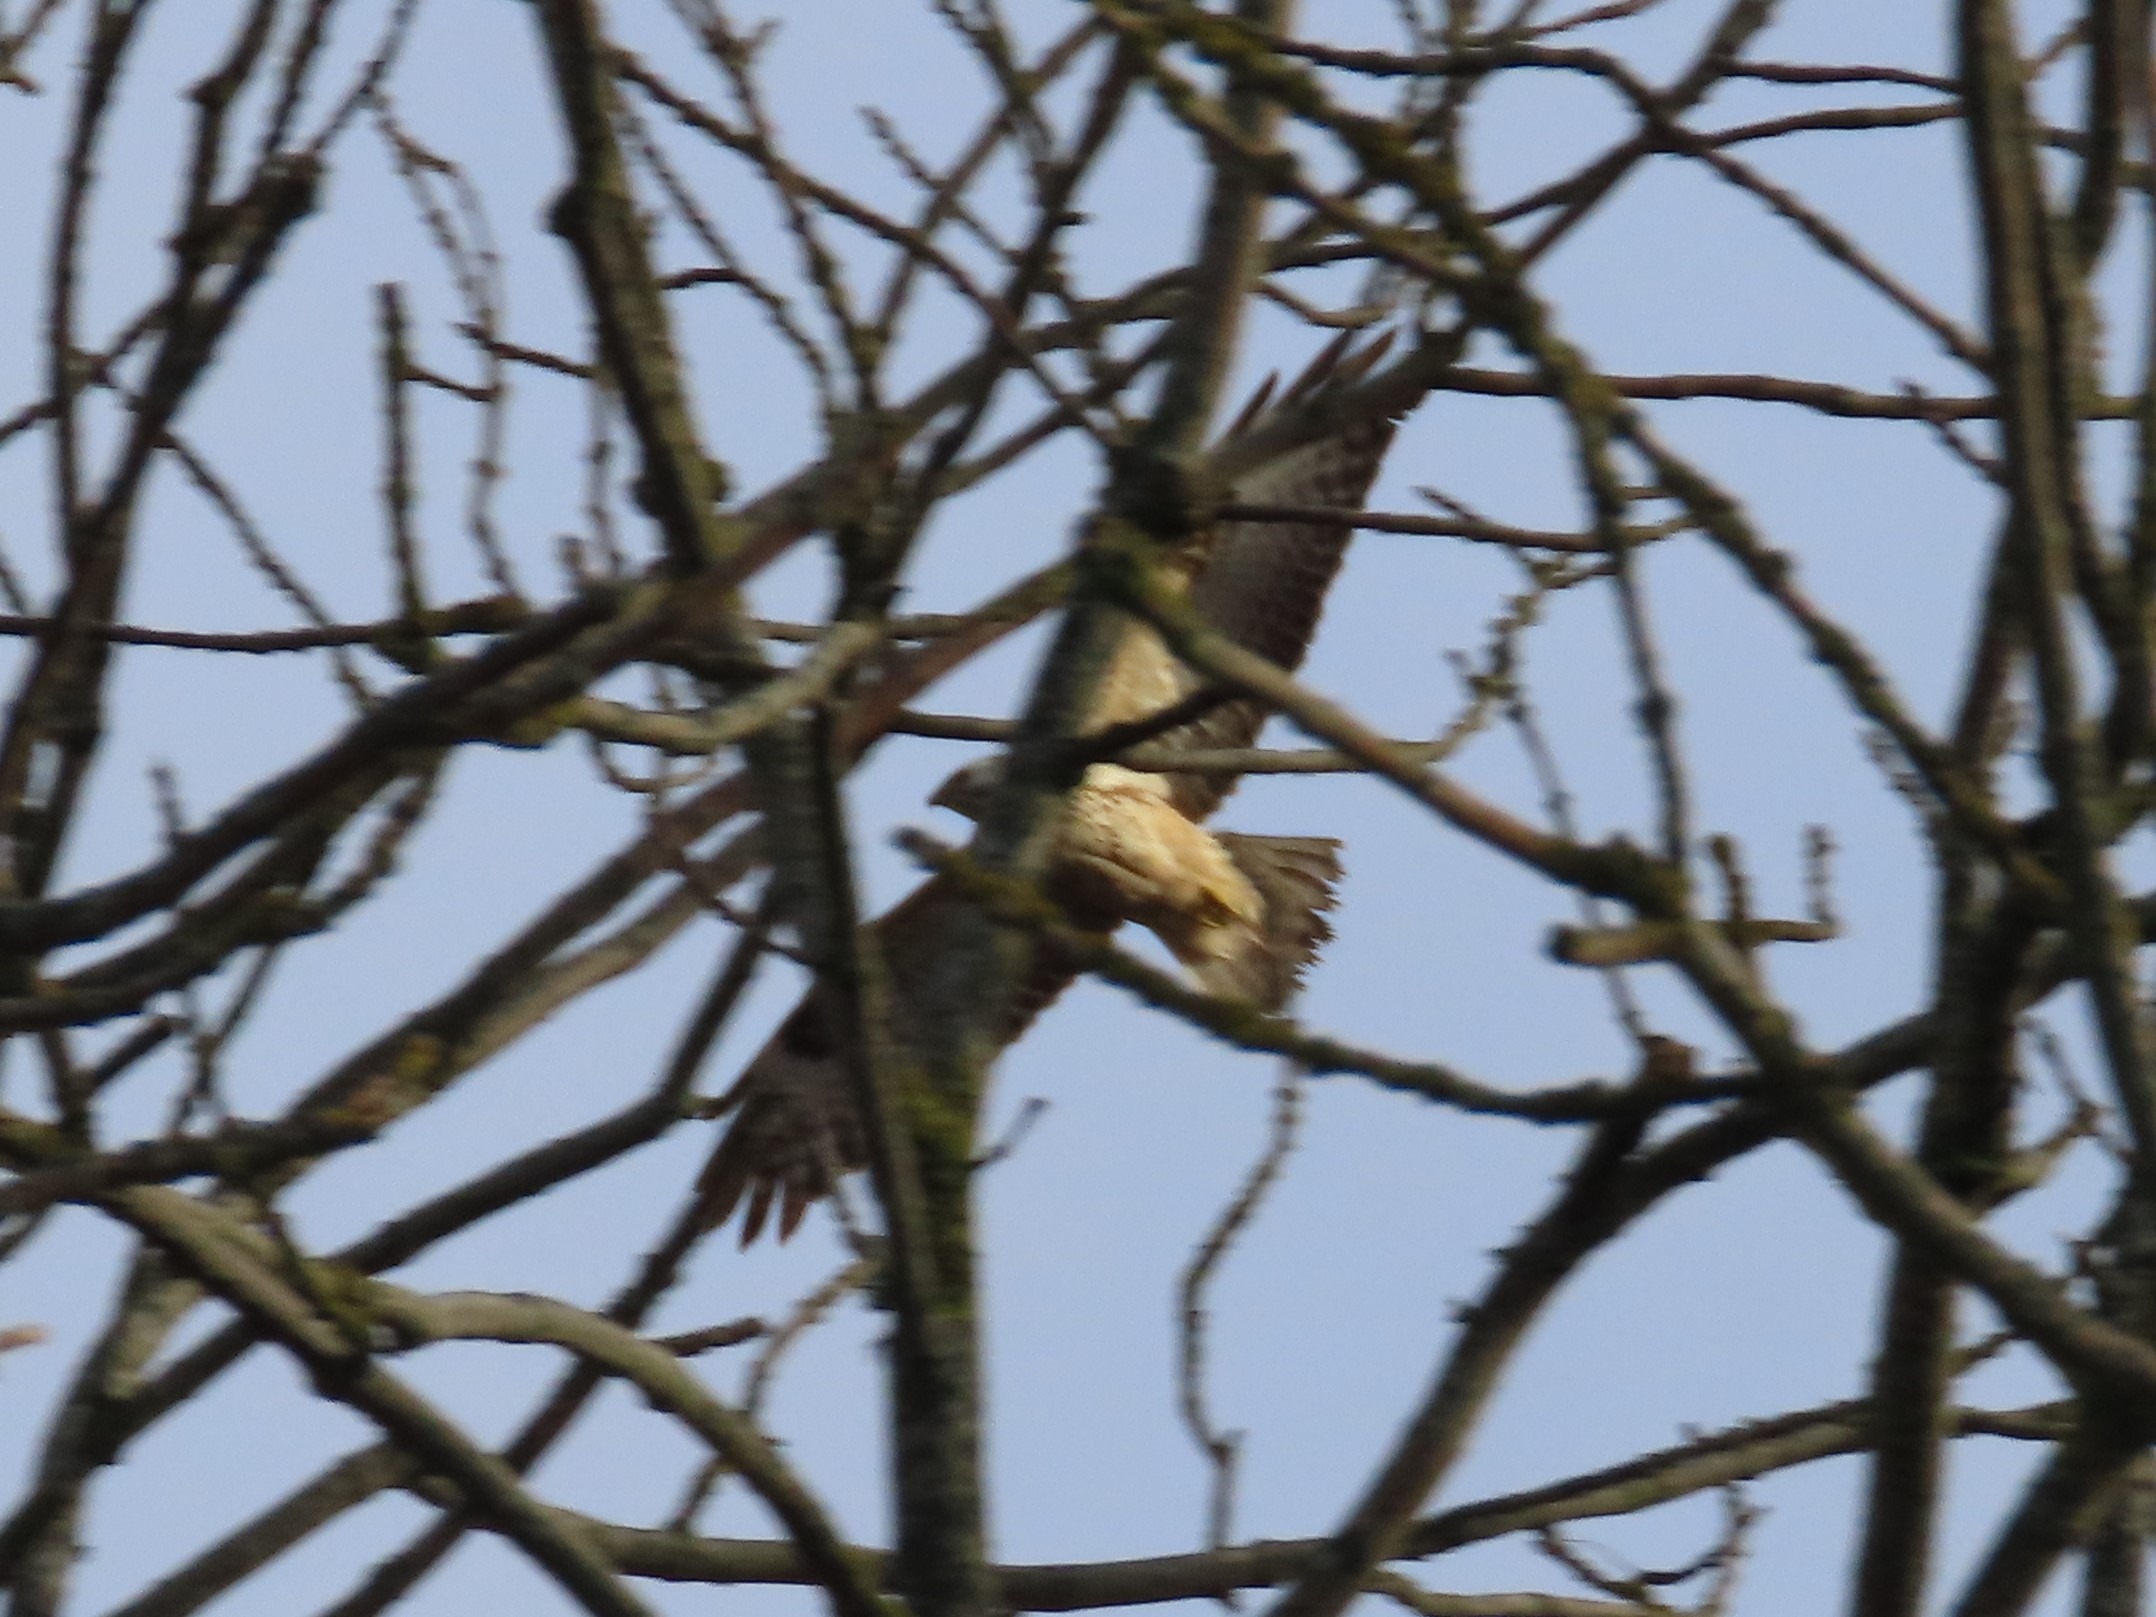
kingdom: Animalia
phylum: Chordata
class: Aves
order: Accipitriformes
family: Accipitridae
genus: Buteo
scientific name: Buteo buteo
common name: Musvåge
